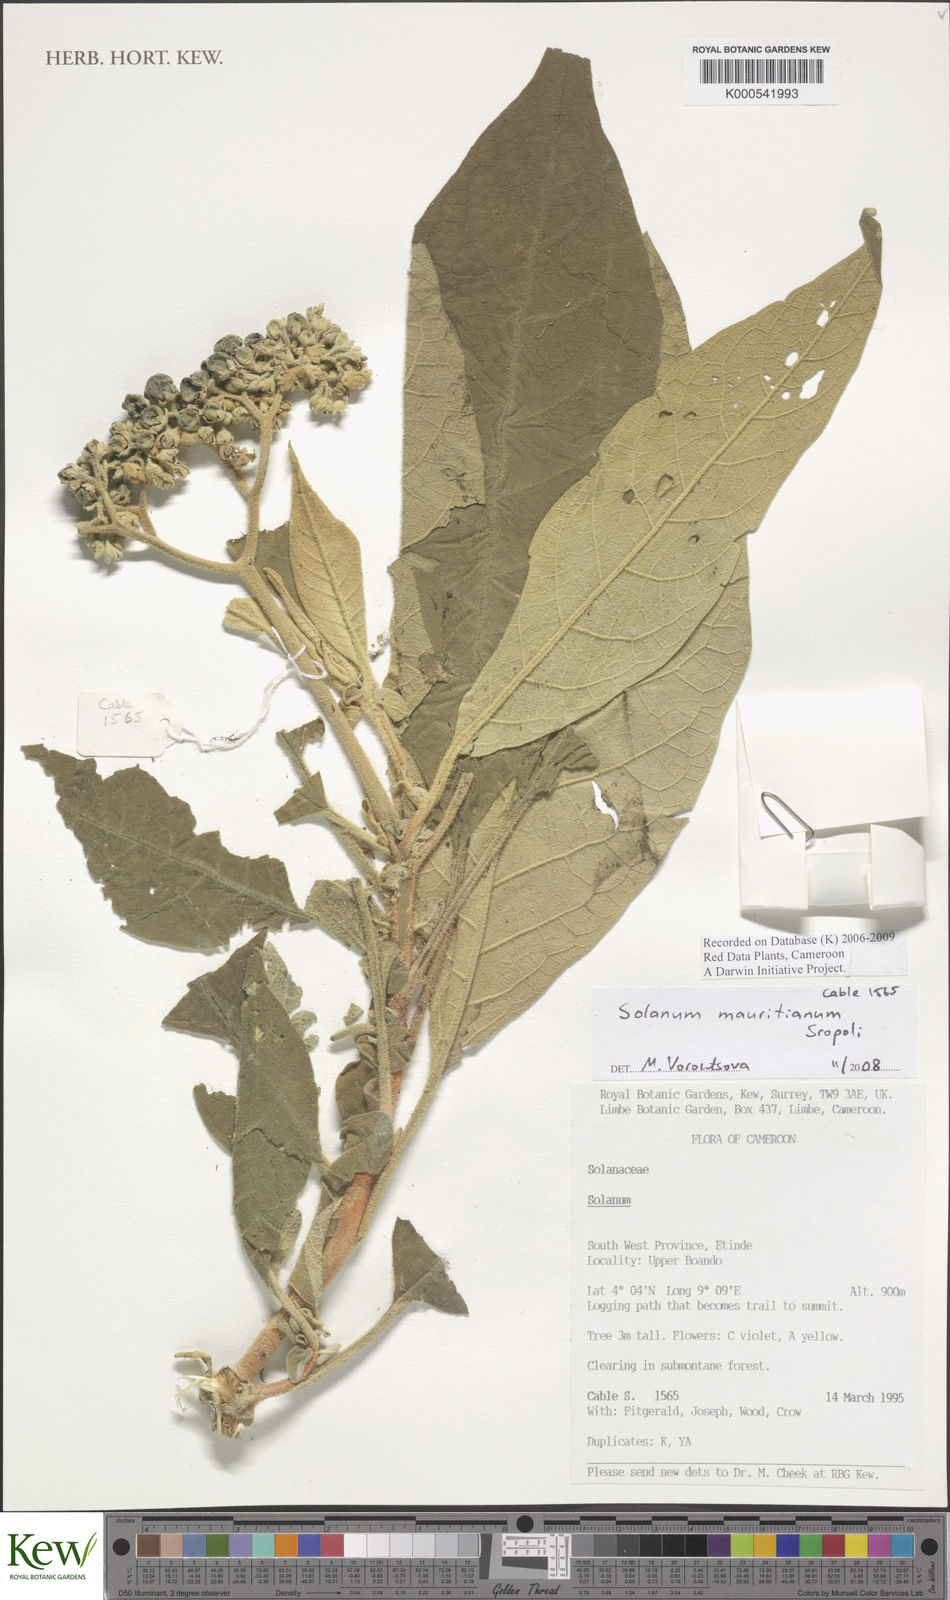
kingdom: Plantae
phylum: Tracheophyta
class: Magnoliopsida
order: Solanales
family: Solanaceae
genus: Solanum
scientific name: Solanum mauritianum
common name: Earleaf nightshade
